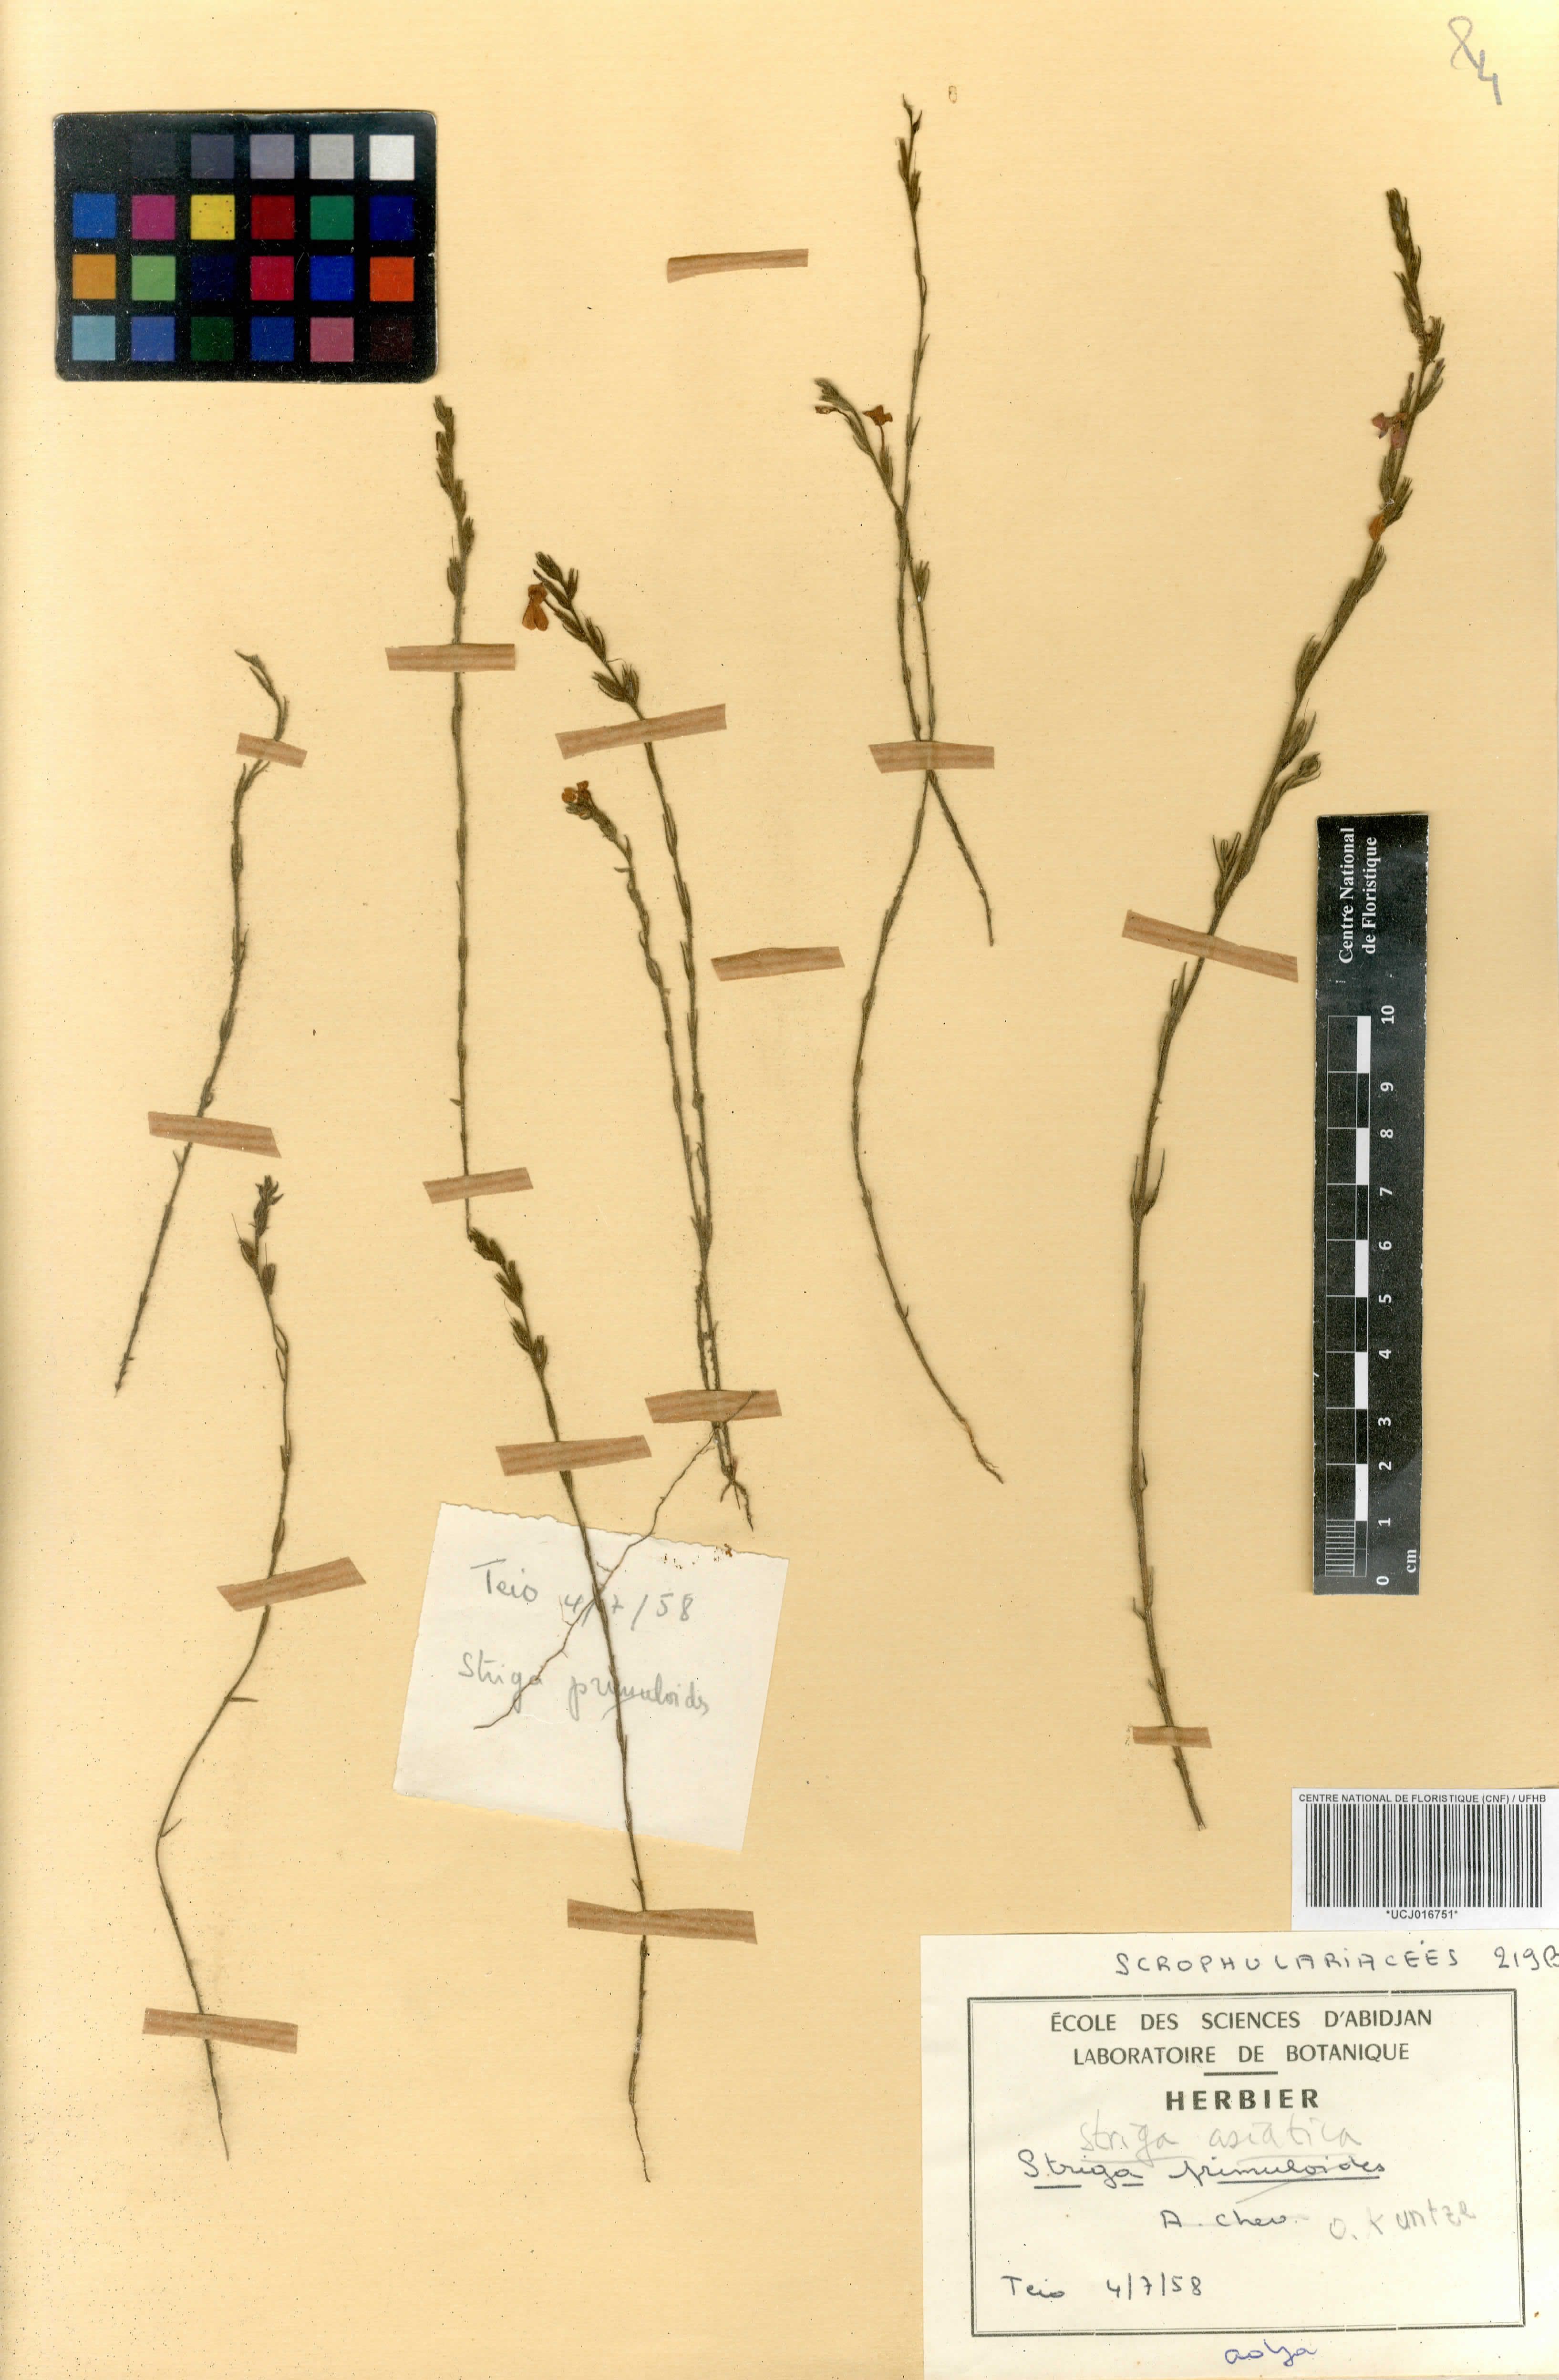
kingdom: Plantae
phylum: Tracheophyta
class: Magnoliopsida
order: Lamiales
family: Orobanchaceae
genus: Striga
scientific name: Striga asiatica
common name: Asiatic witchweed
